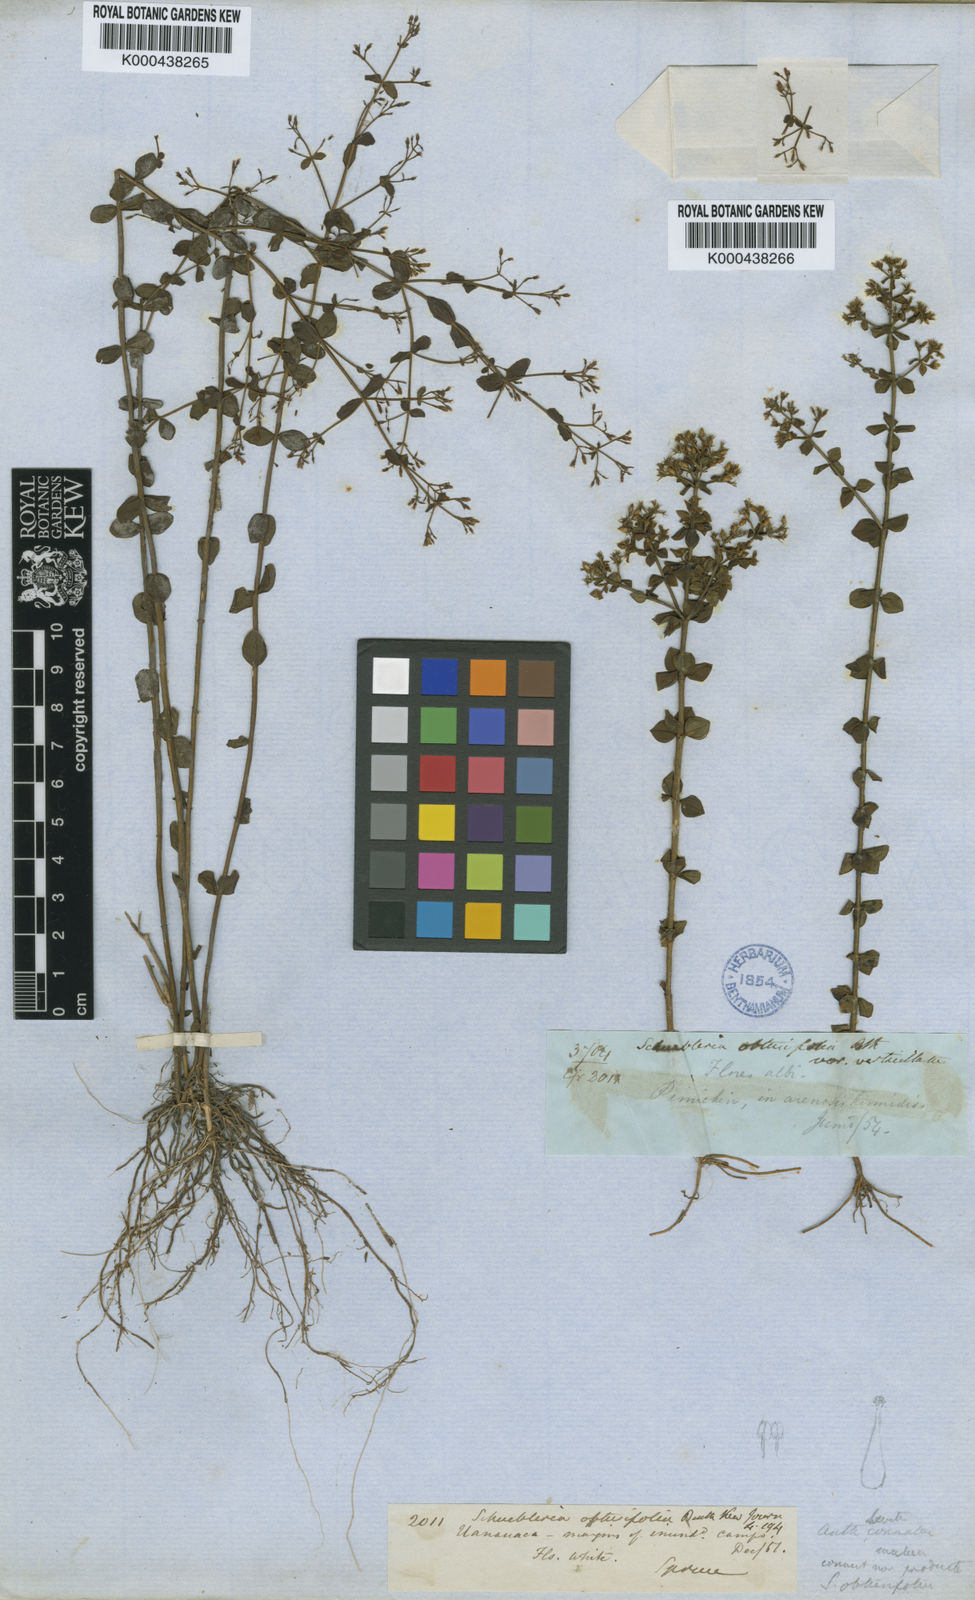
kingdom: Plantae
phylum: Tracheophyta
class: Magnoliopsida
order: Gentianales
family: Gentianaceae
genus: Curtia
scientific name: Curtia obtusifolia
